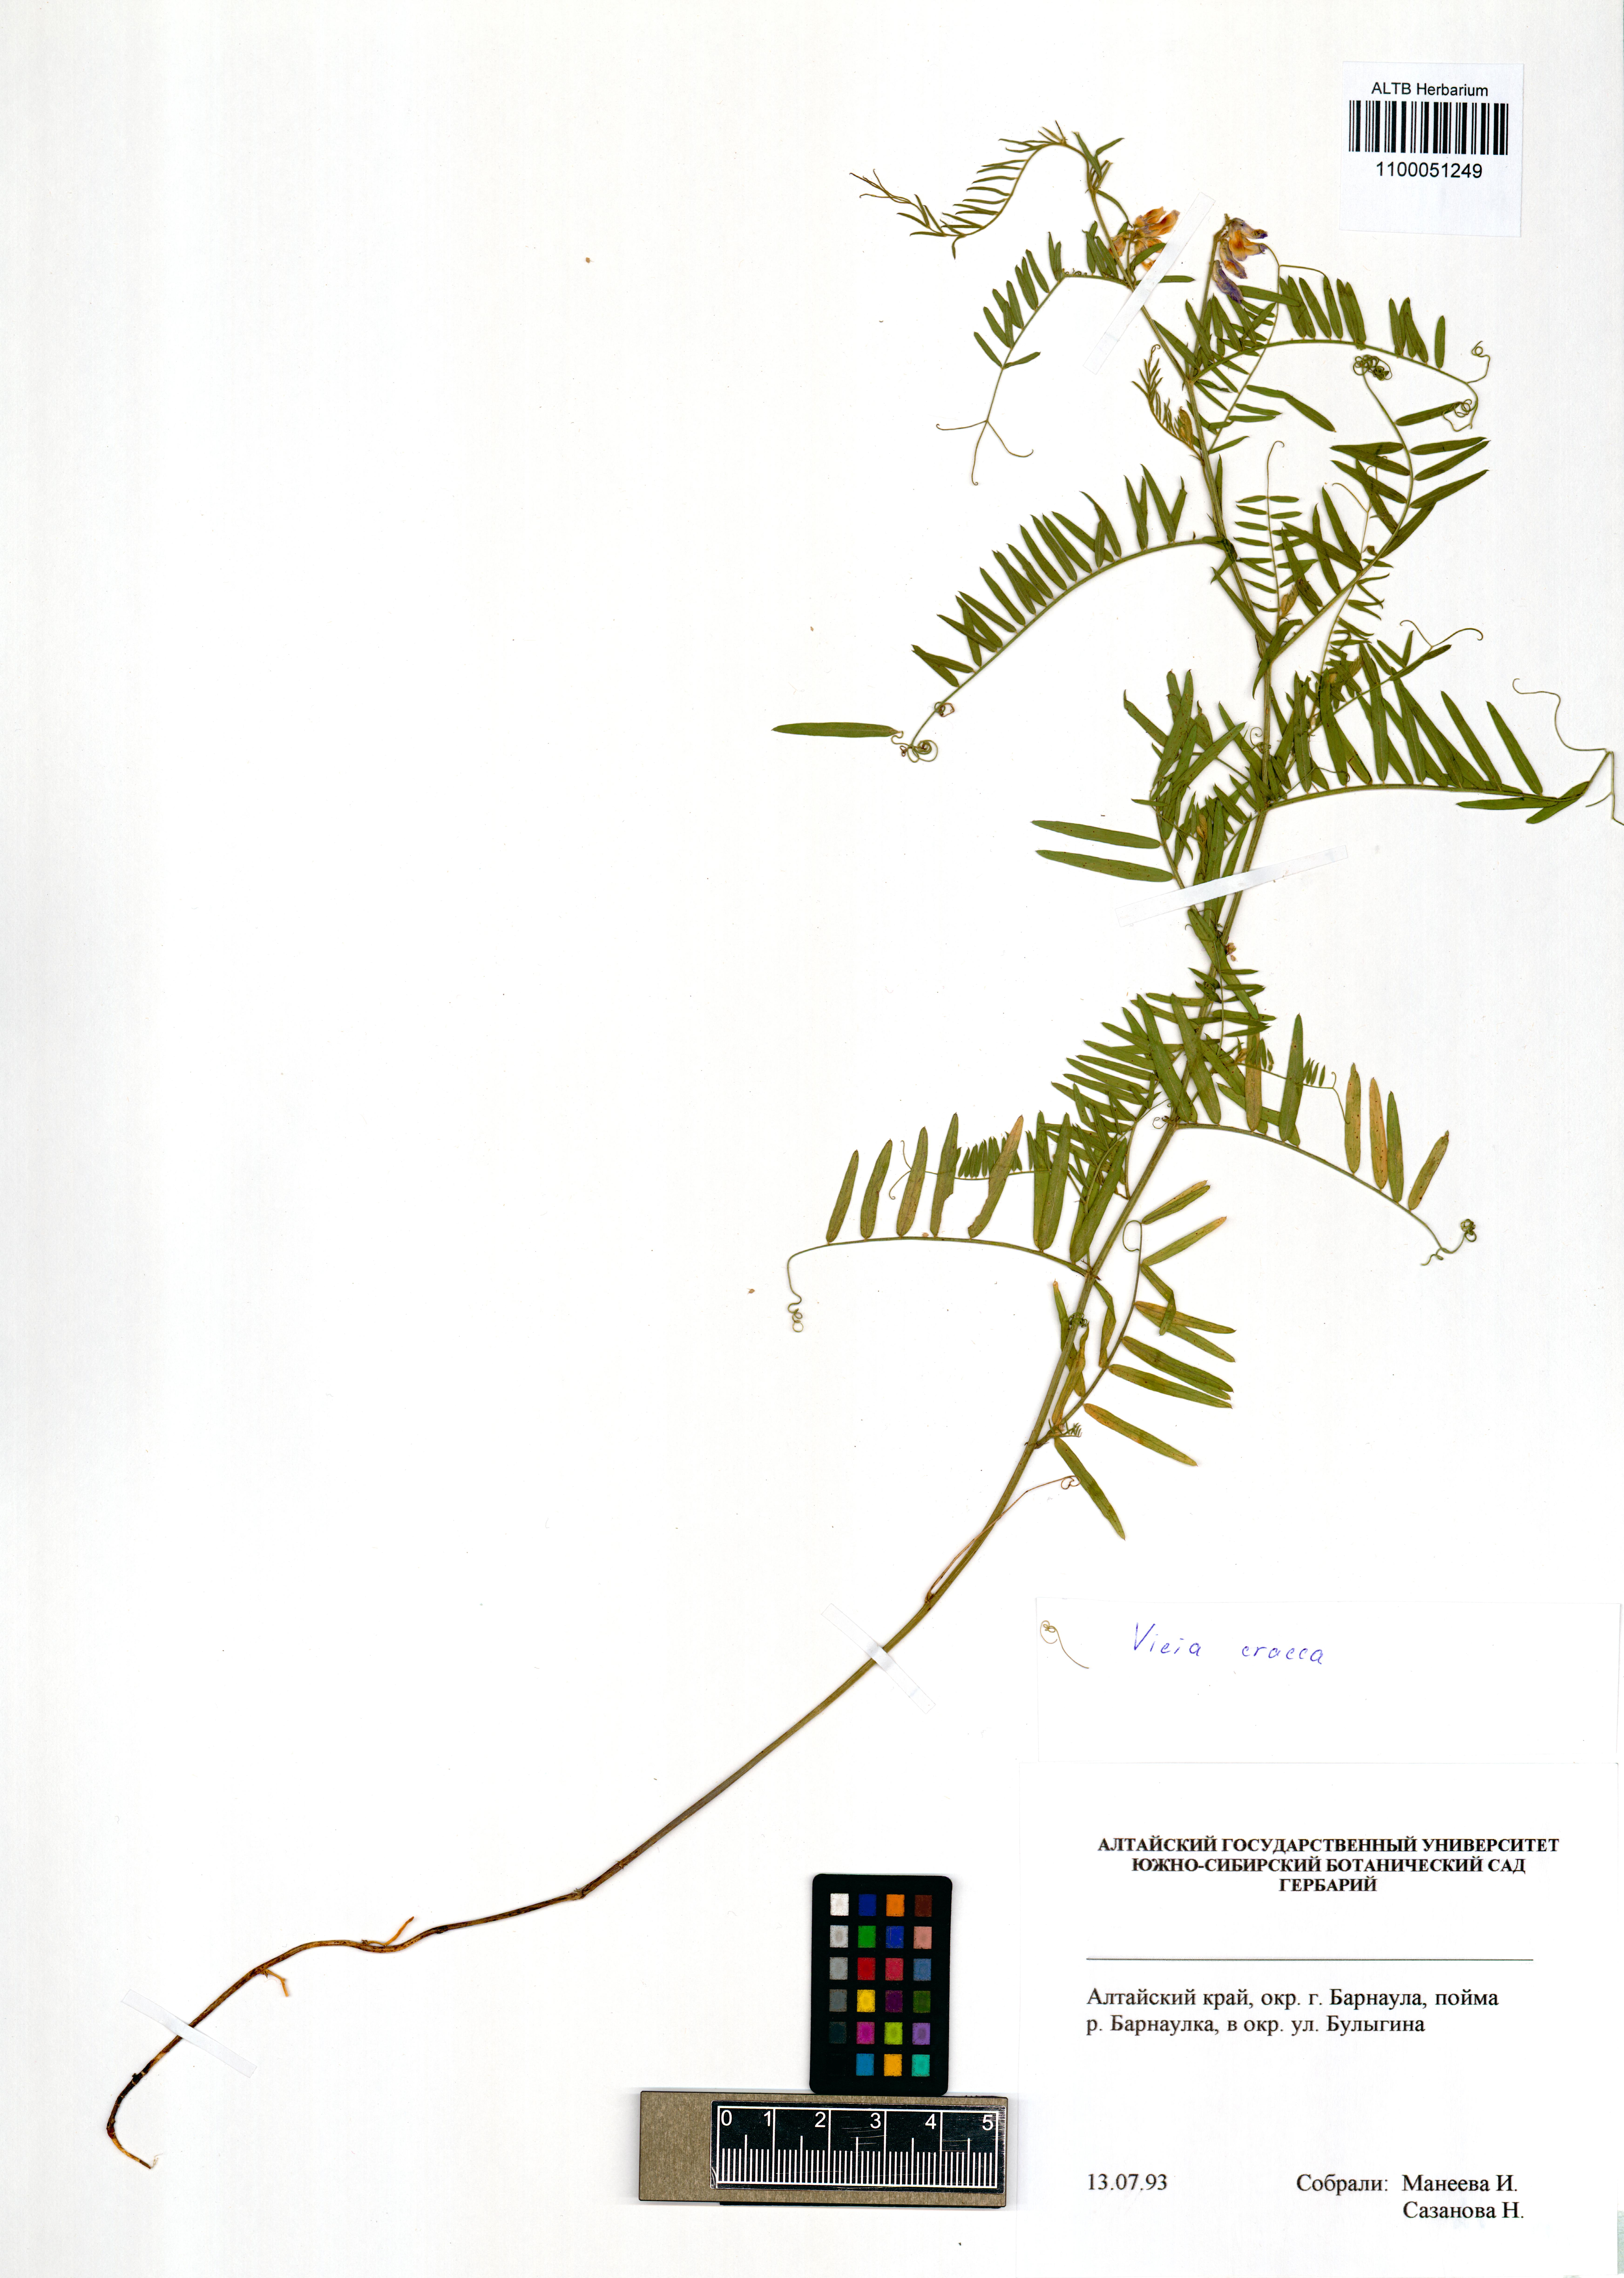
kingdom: Plantae
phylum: Tracheophyta
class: Magnoliopsida
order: Fabales
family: Fabaceae
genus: Vicia
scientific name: Vicia cracca
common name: Bird vetch
